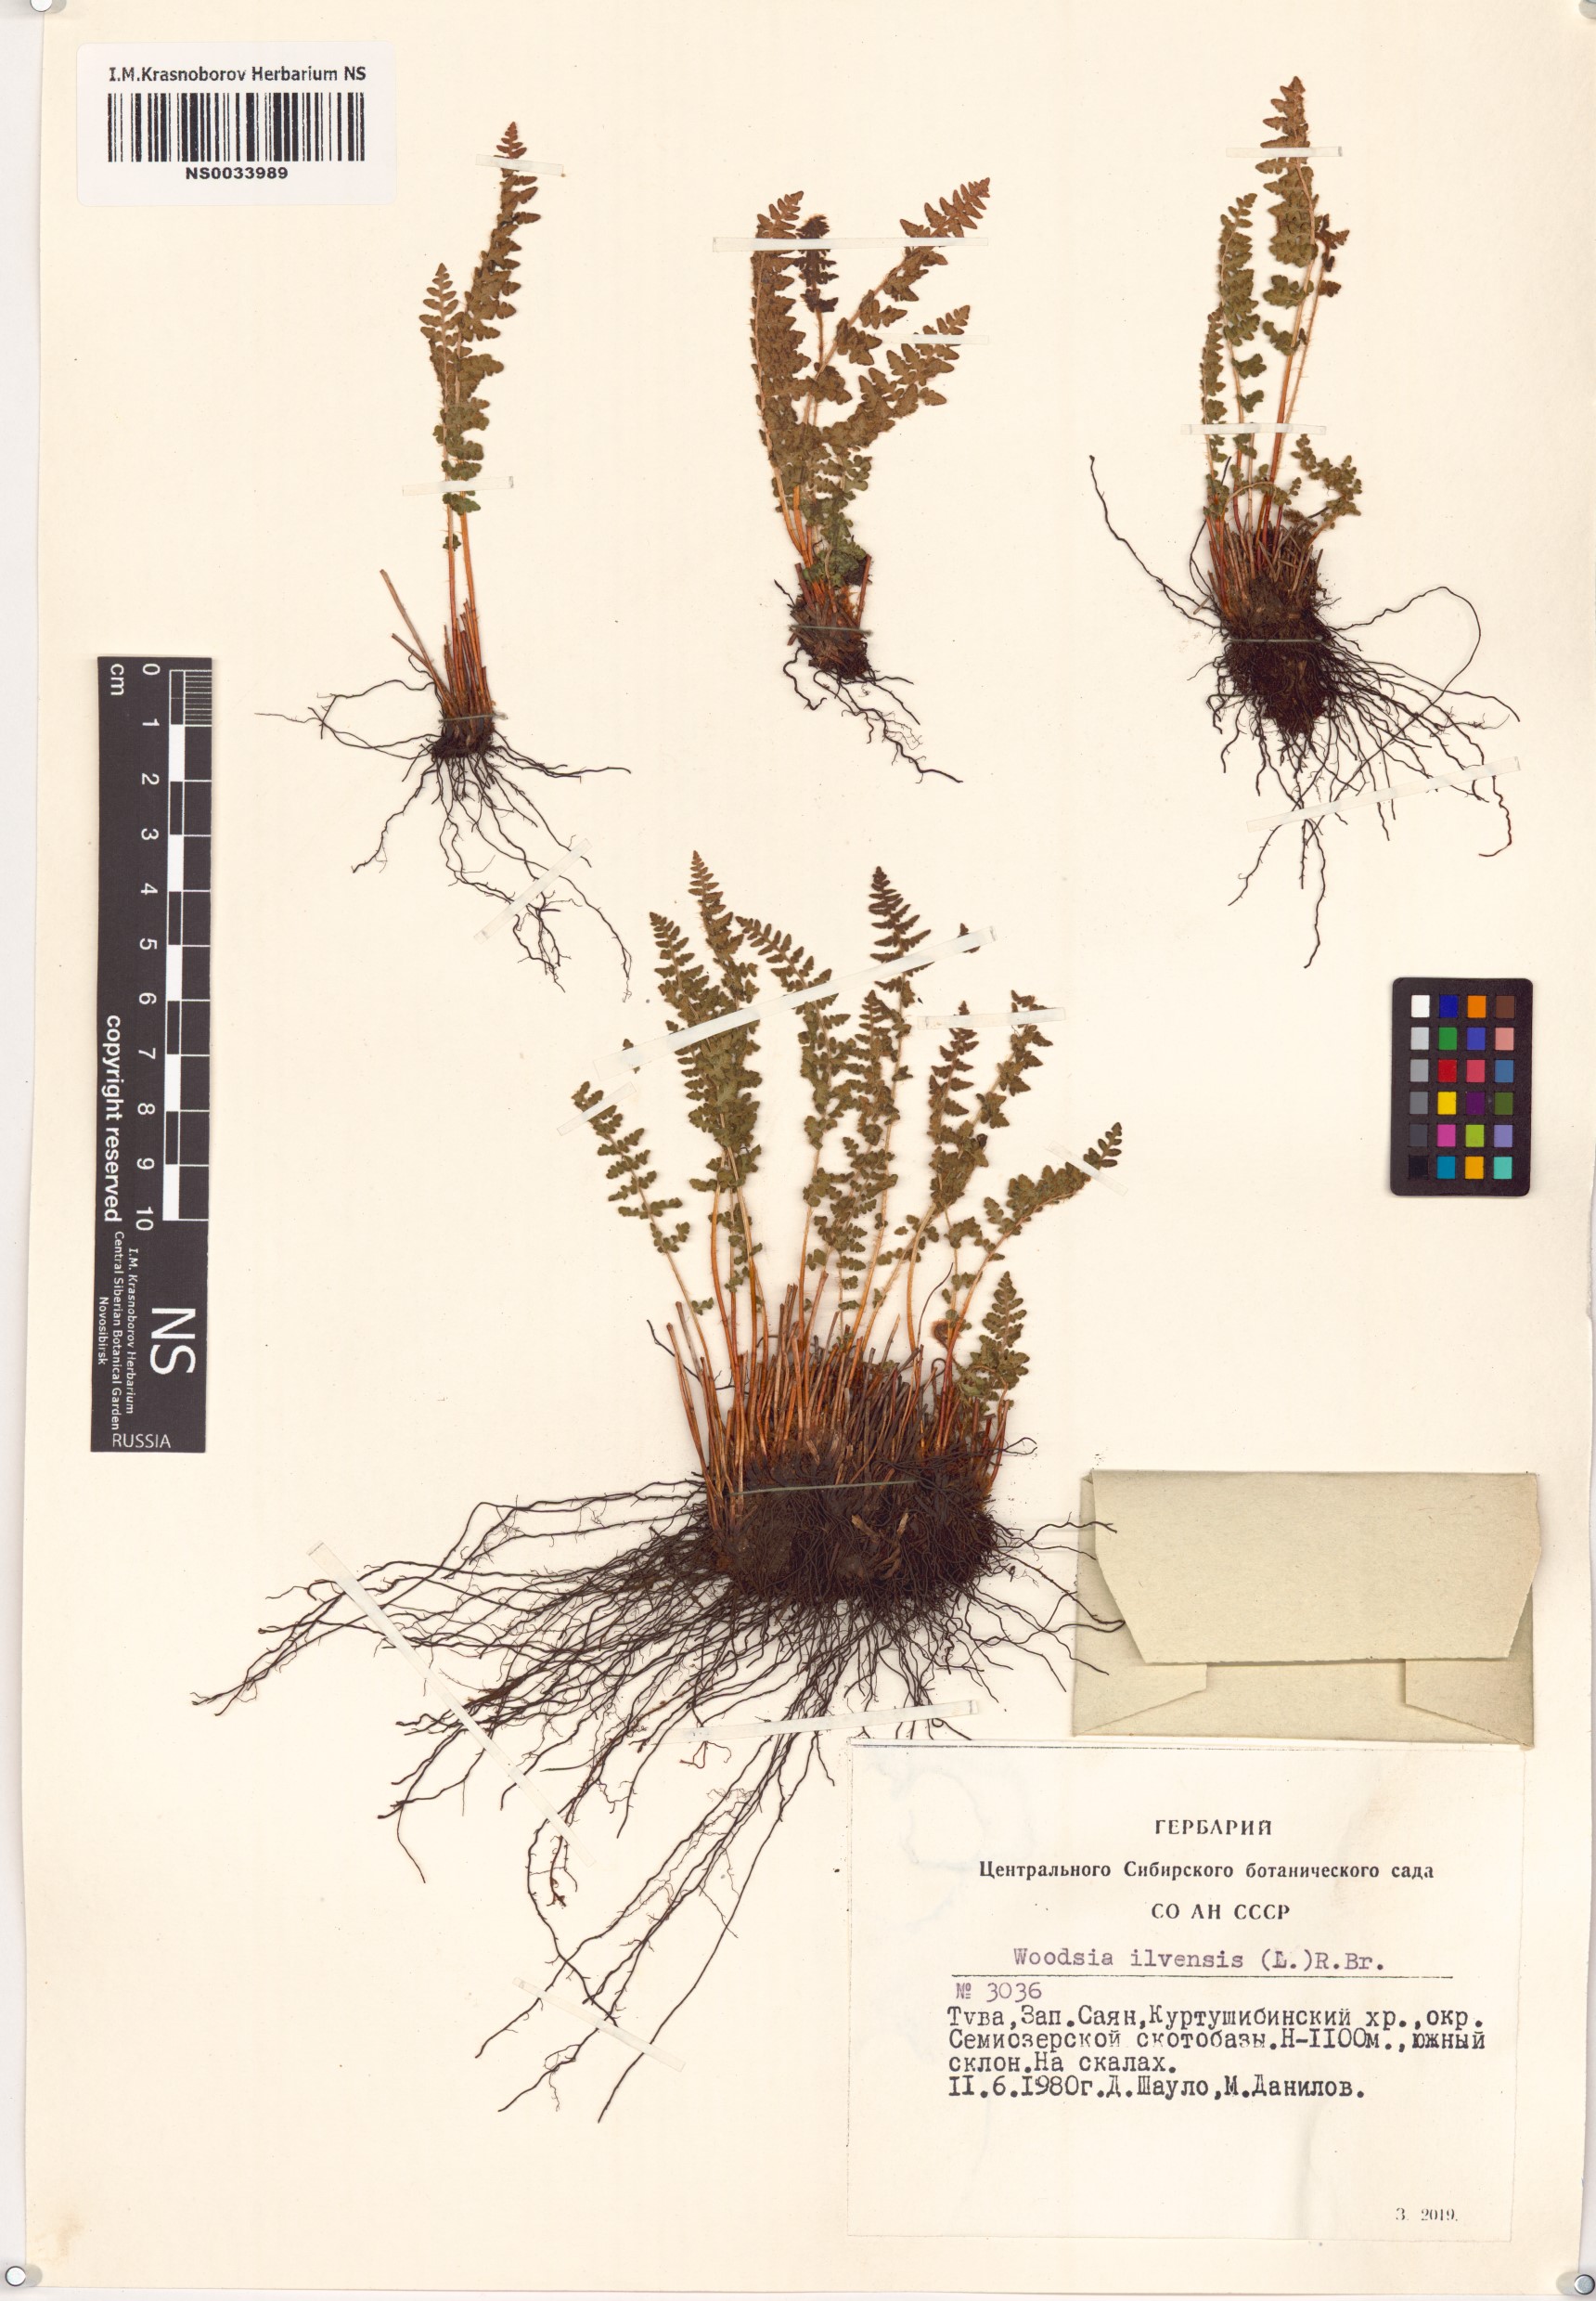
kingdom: Plantae
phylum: Tracheophyta
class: Polypodiopsida
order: Polypodiales
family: Woodsiaceae
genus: Woodsia
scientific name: Woodsia ilvensis
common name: Fragrant woodsia
